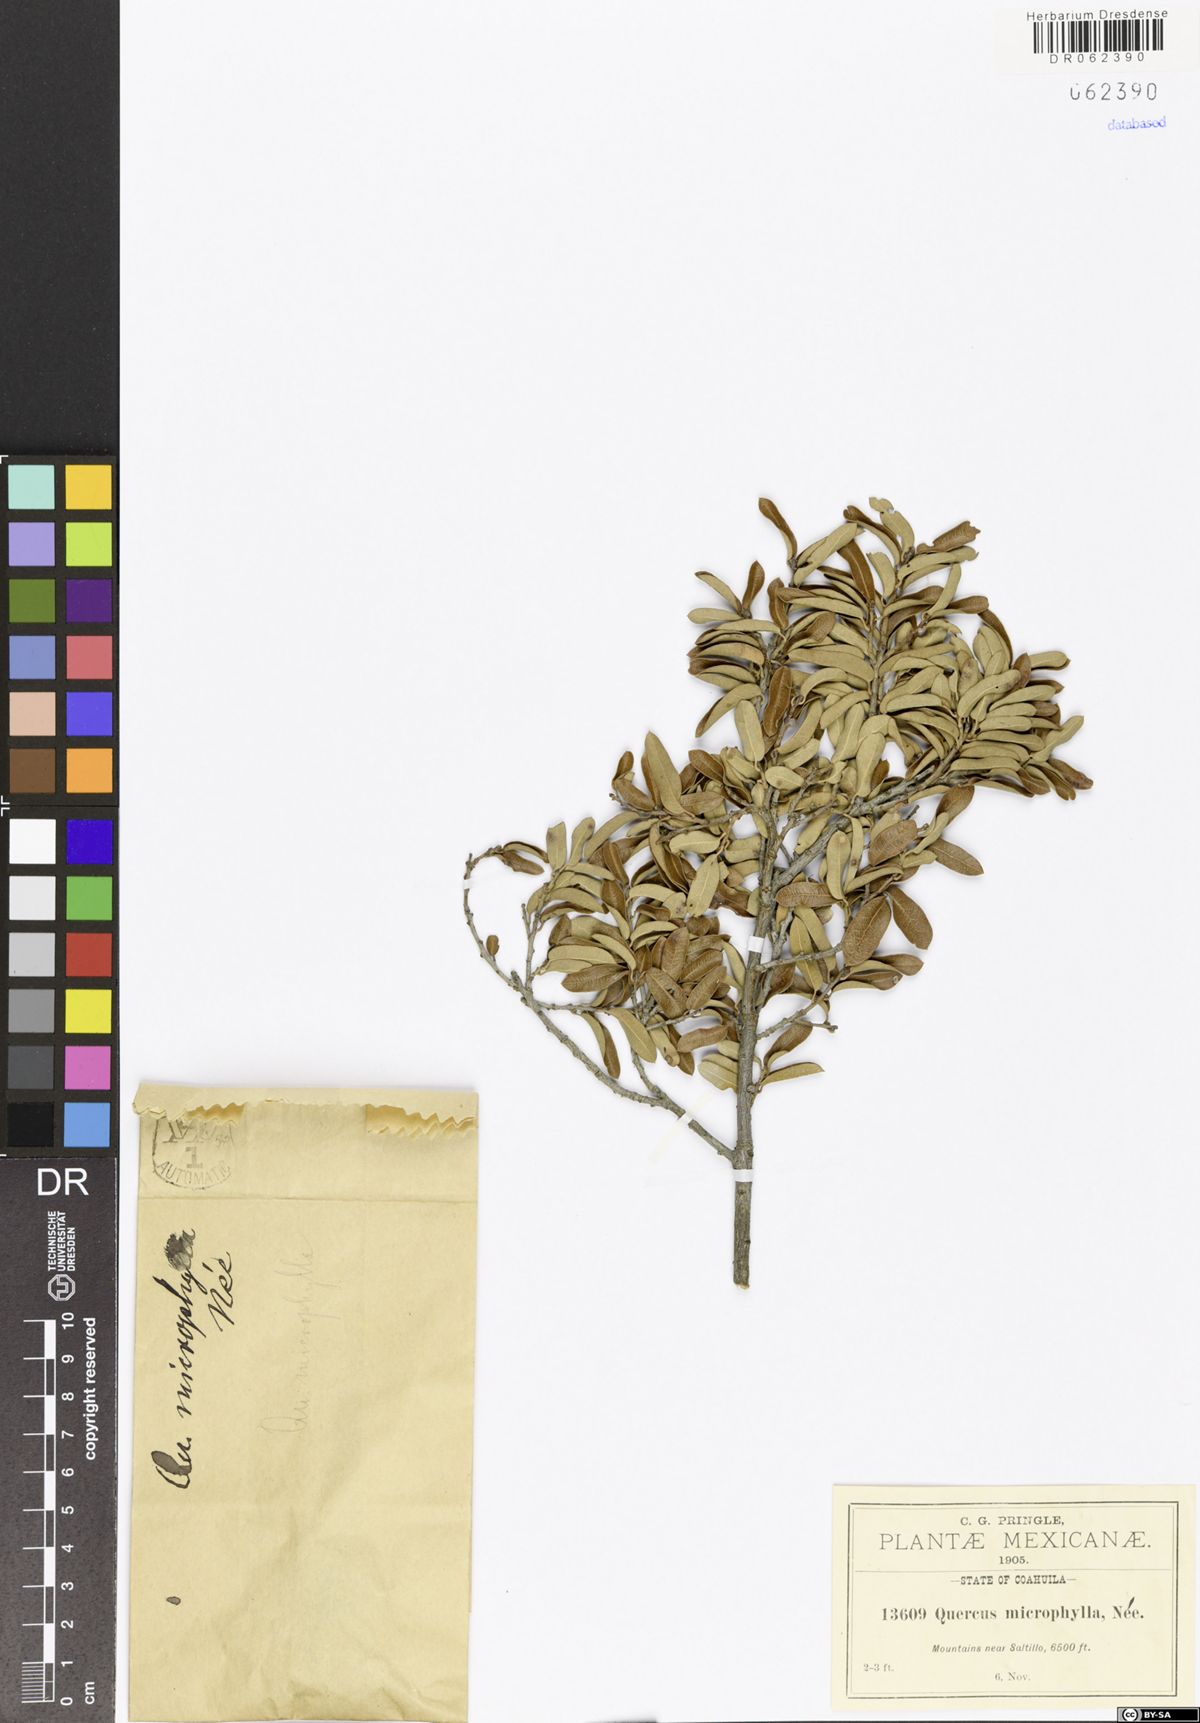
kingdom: Plantae
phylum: Tracheophyta
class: Magnoliopsida
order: Fagales
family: Fagaceae
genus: Quercus
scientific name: Quercus microphylla
